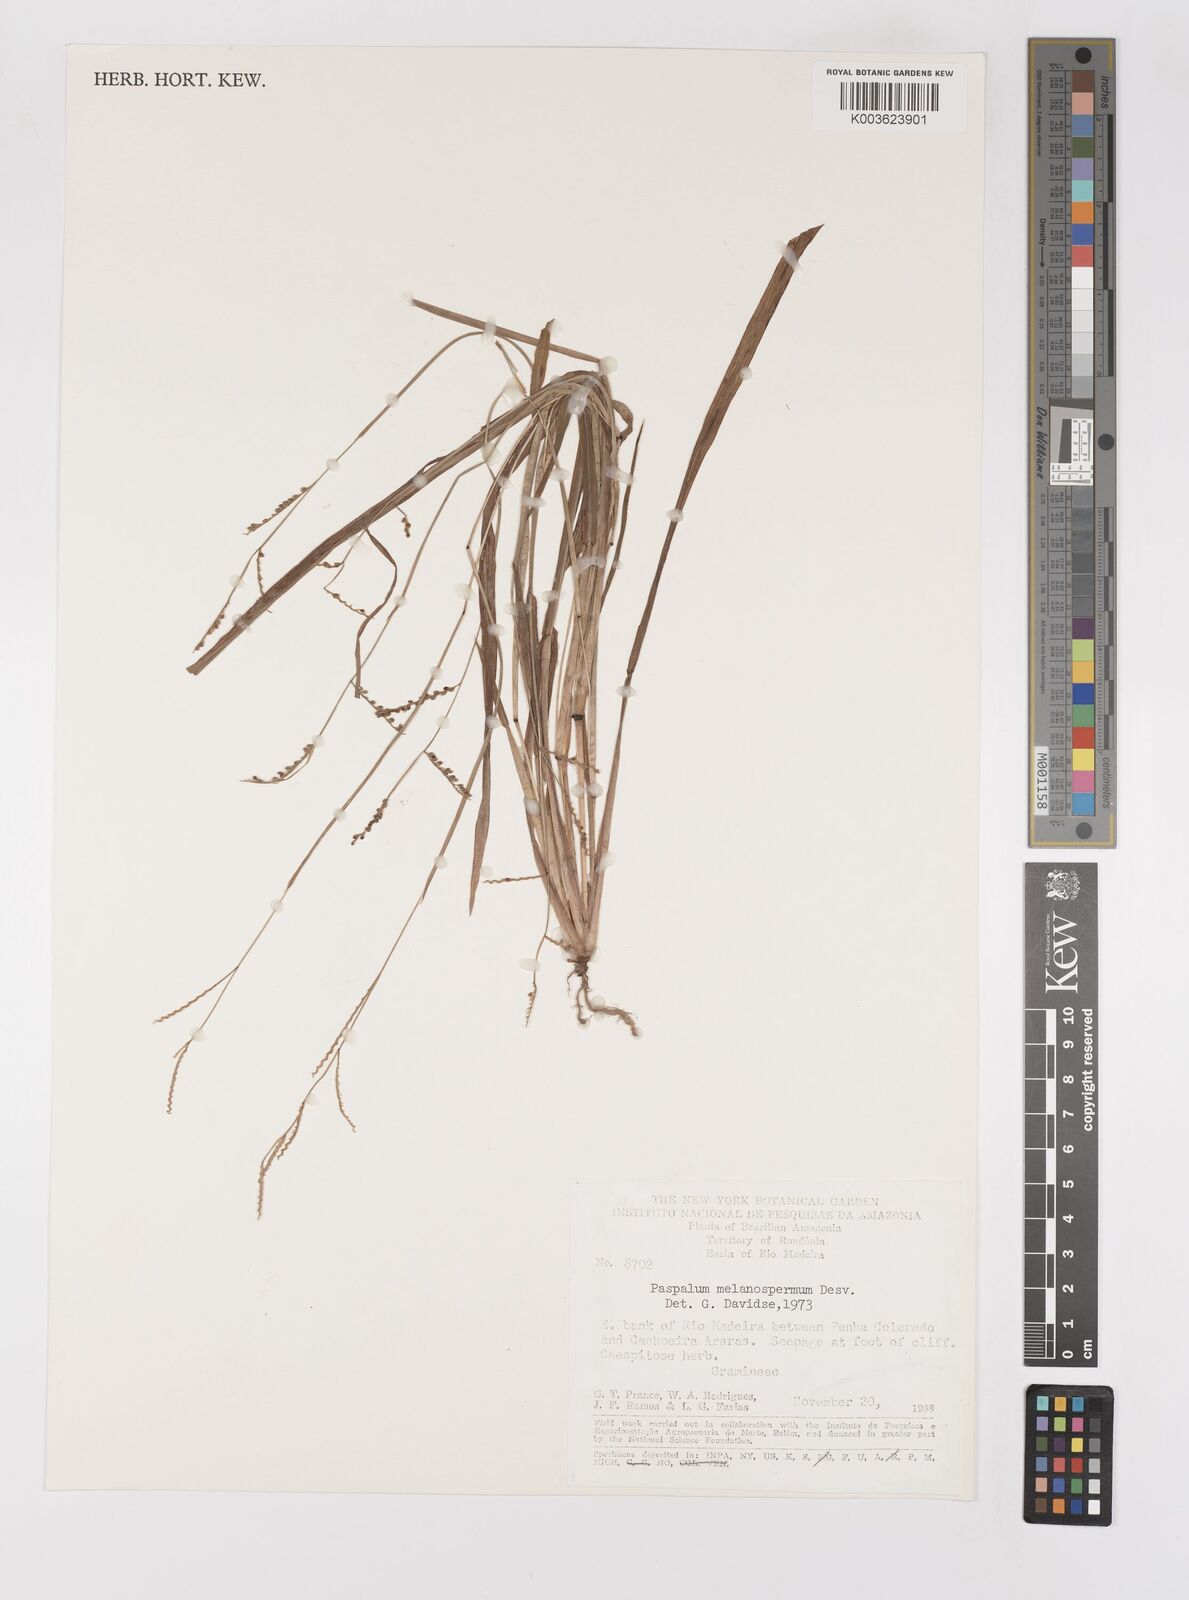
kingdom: Plantae
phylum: Tracheophyta
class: Liliopsida
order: Poales
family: Poaceae
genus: Paspalum
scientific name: Paspalum melanospermum
